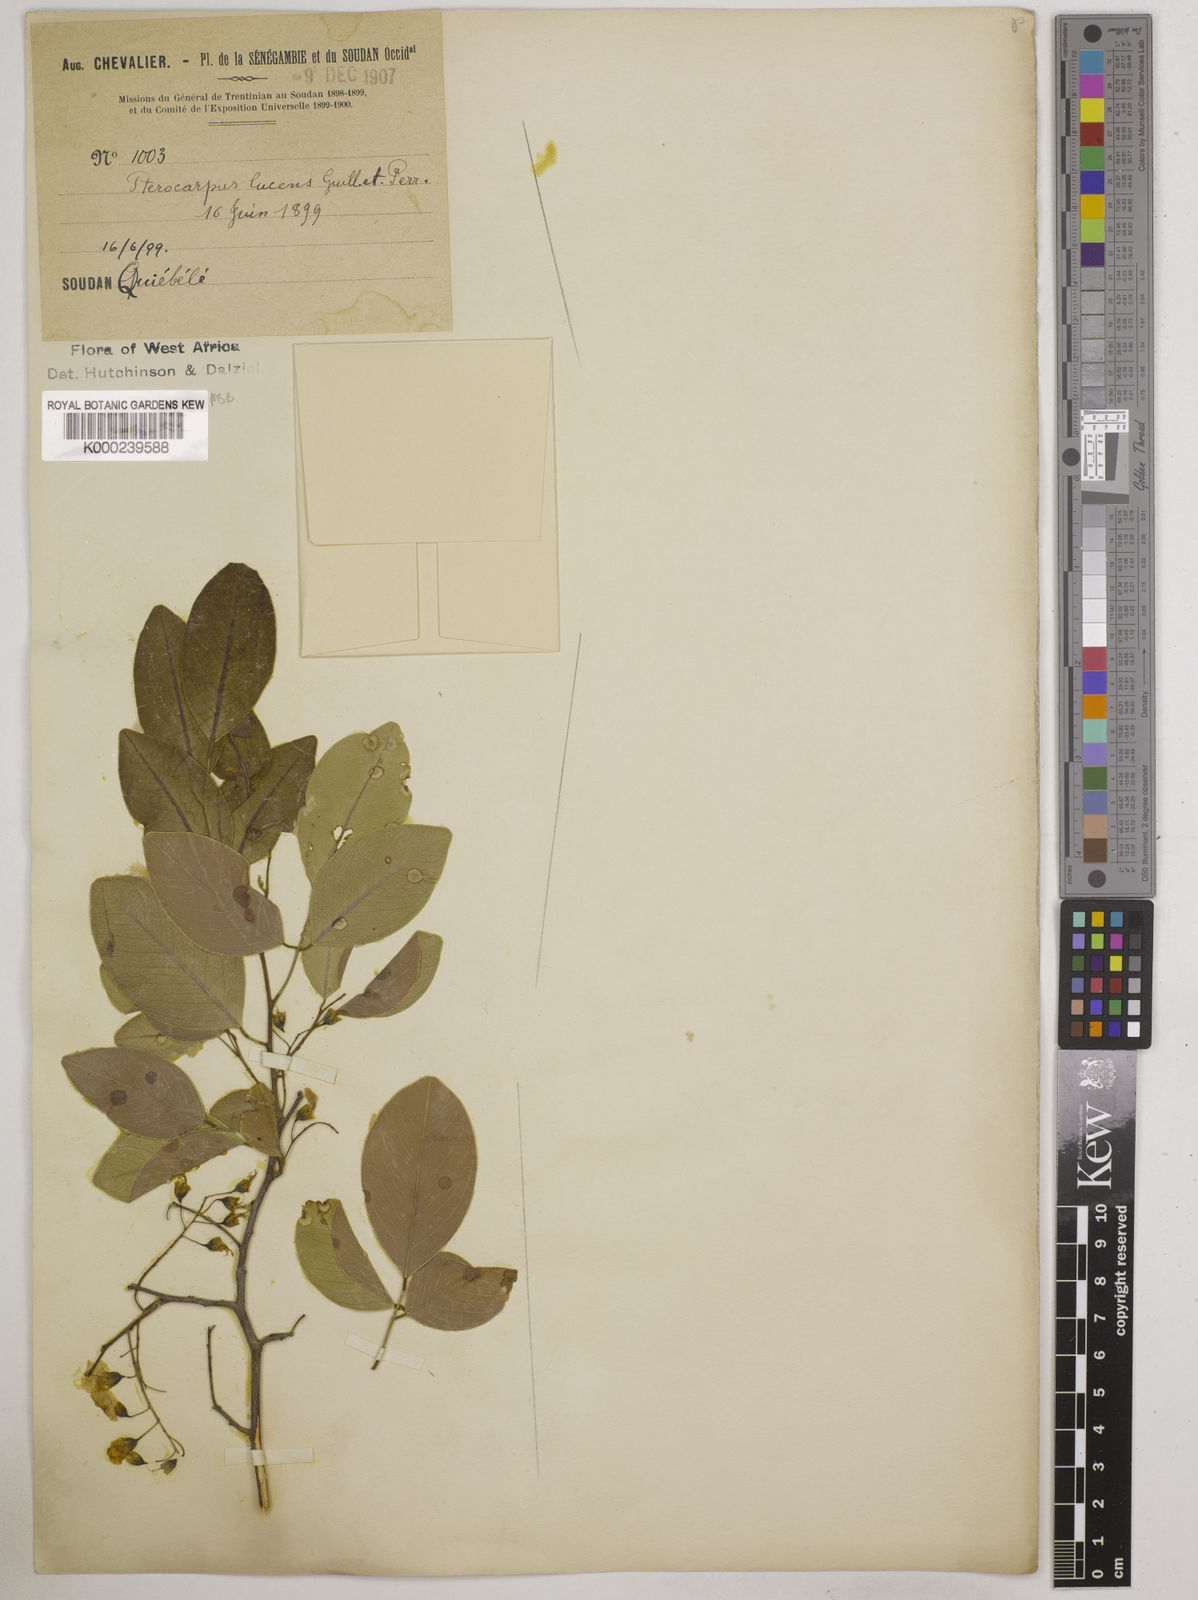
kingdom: Plantae
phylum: Tracheophyta
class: Magnoliopsida
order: Fabales
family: Fabaceae
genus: Pterocarpus
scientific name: Pterocarpus lucens
